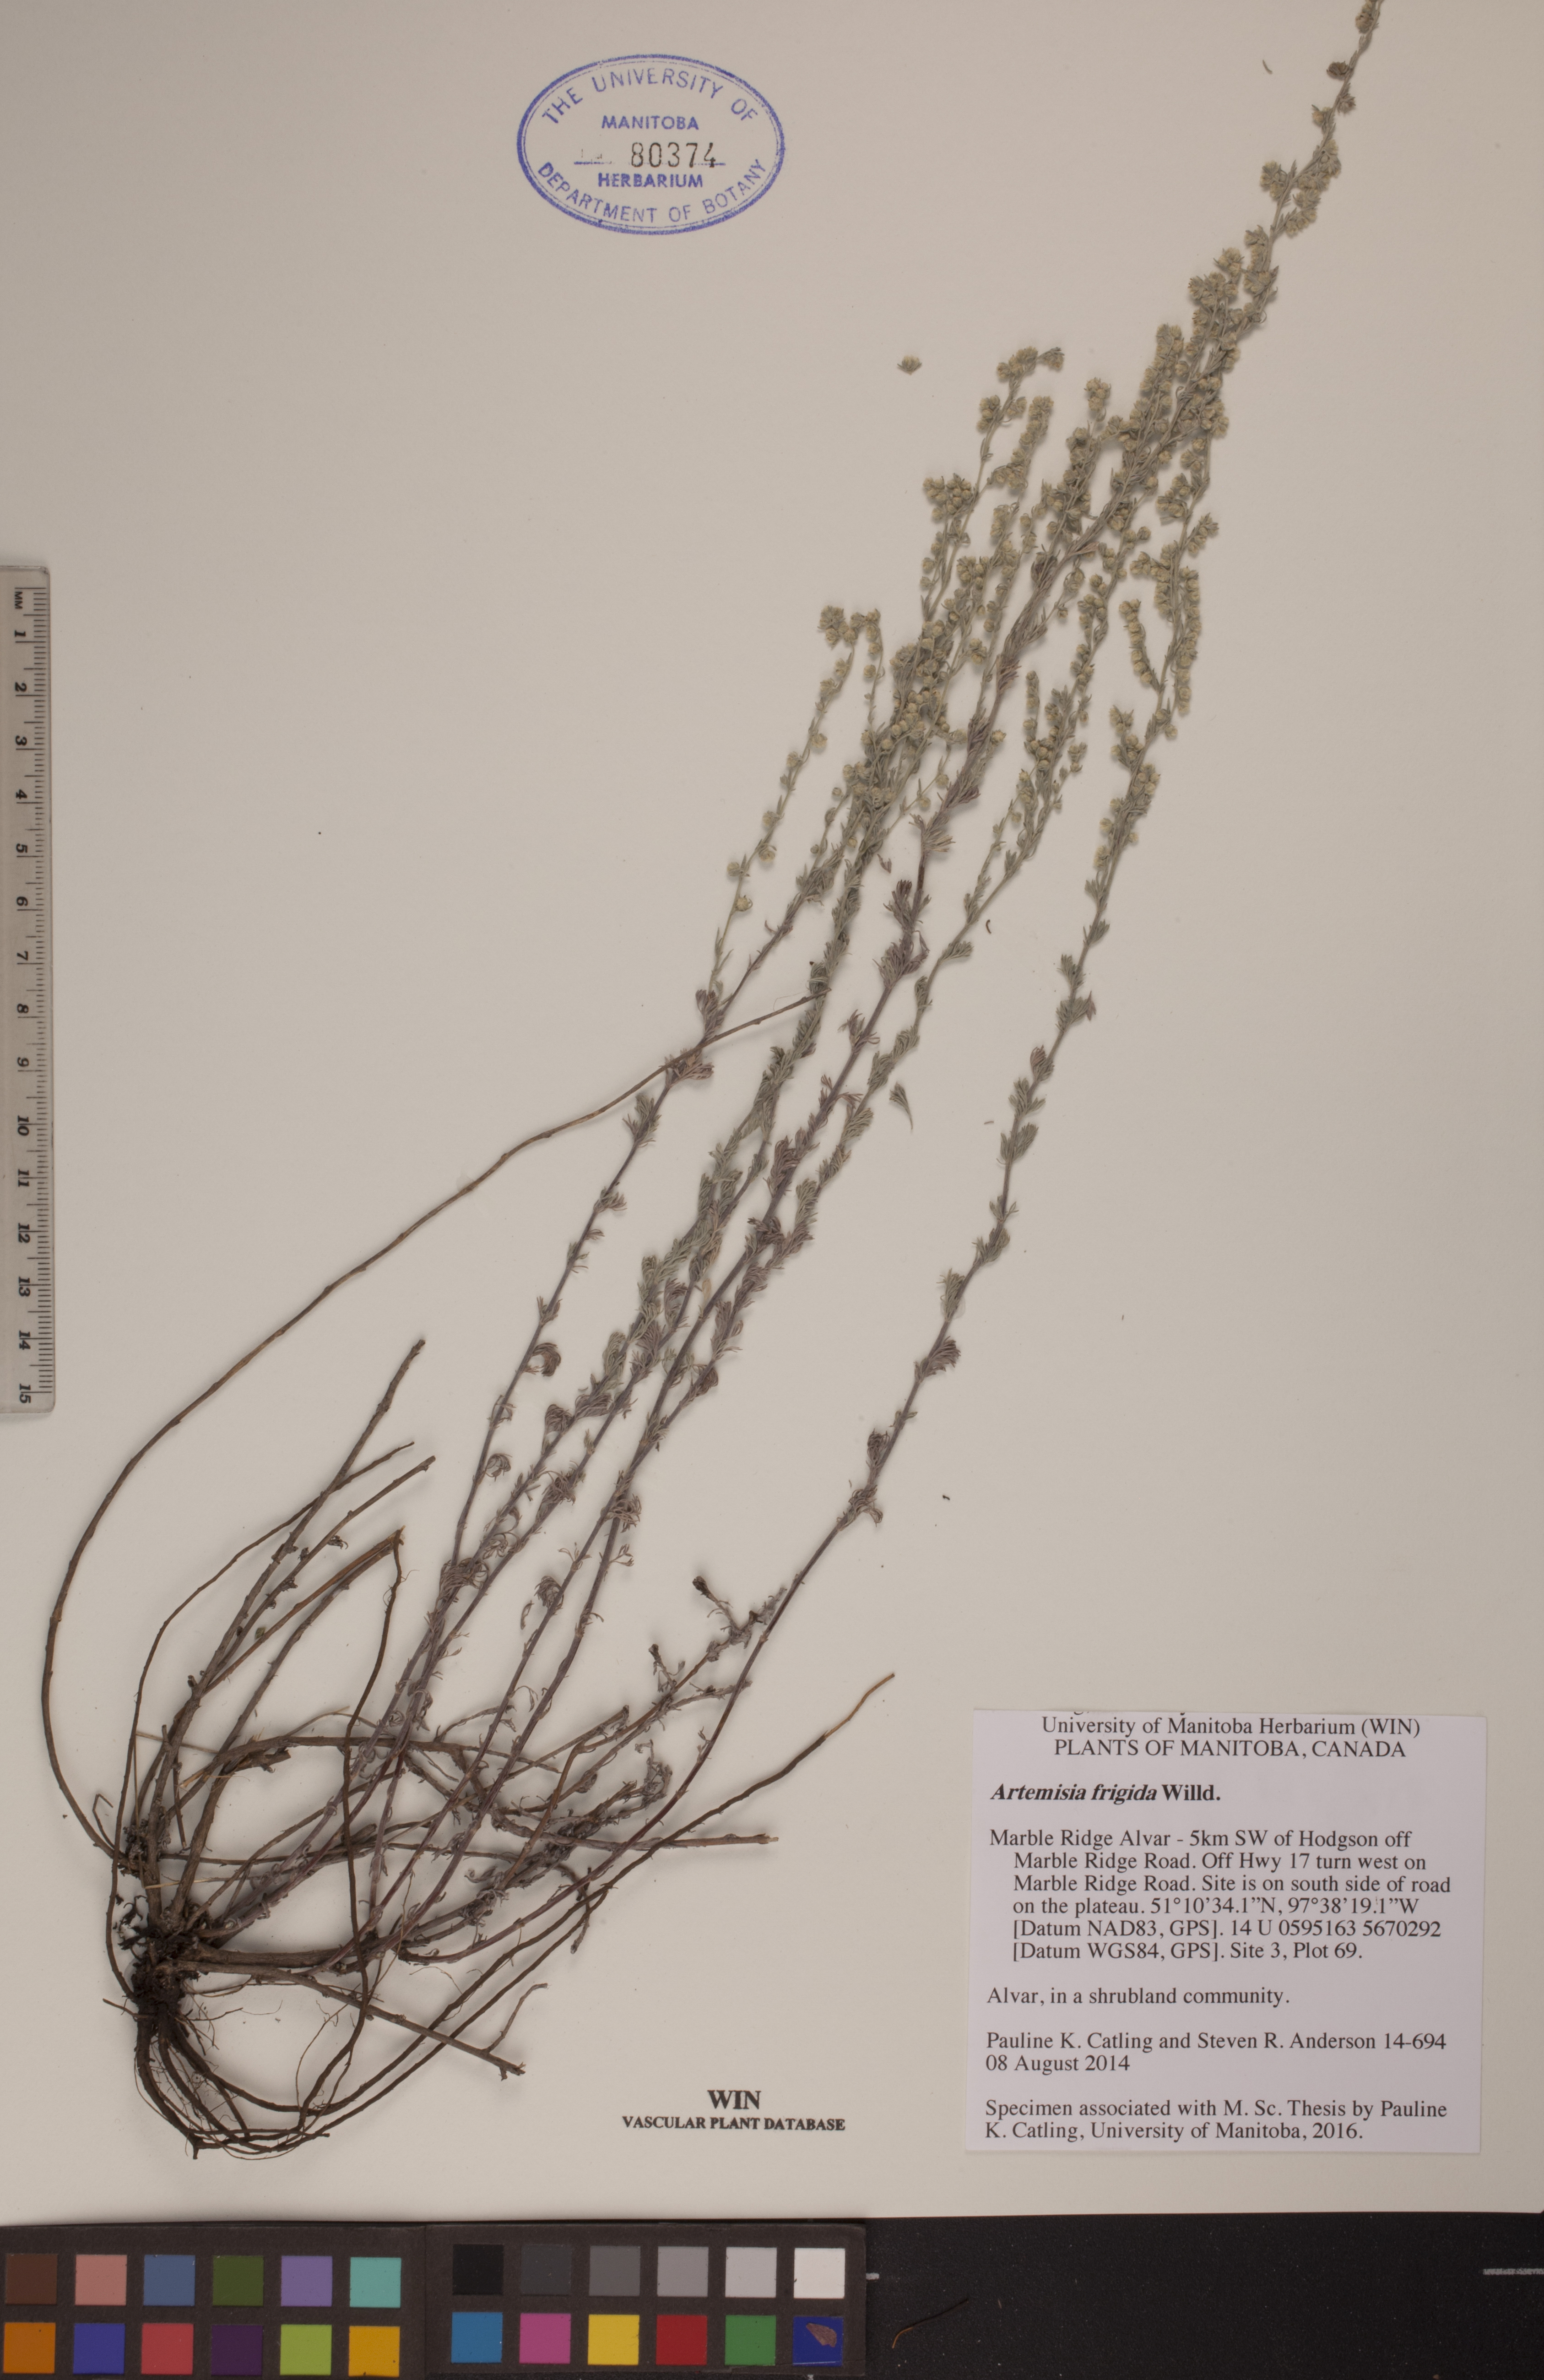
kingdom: Plantae
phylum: Tracheophyta
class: Magnoliopsida
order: Asterales
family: Asteraceae
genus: Artemisia
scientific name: Artemisia frigida
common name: Prairie sagewort
